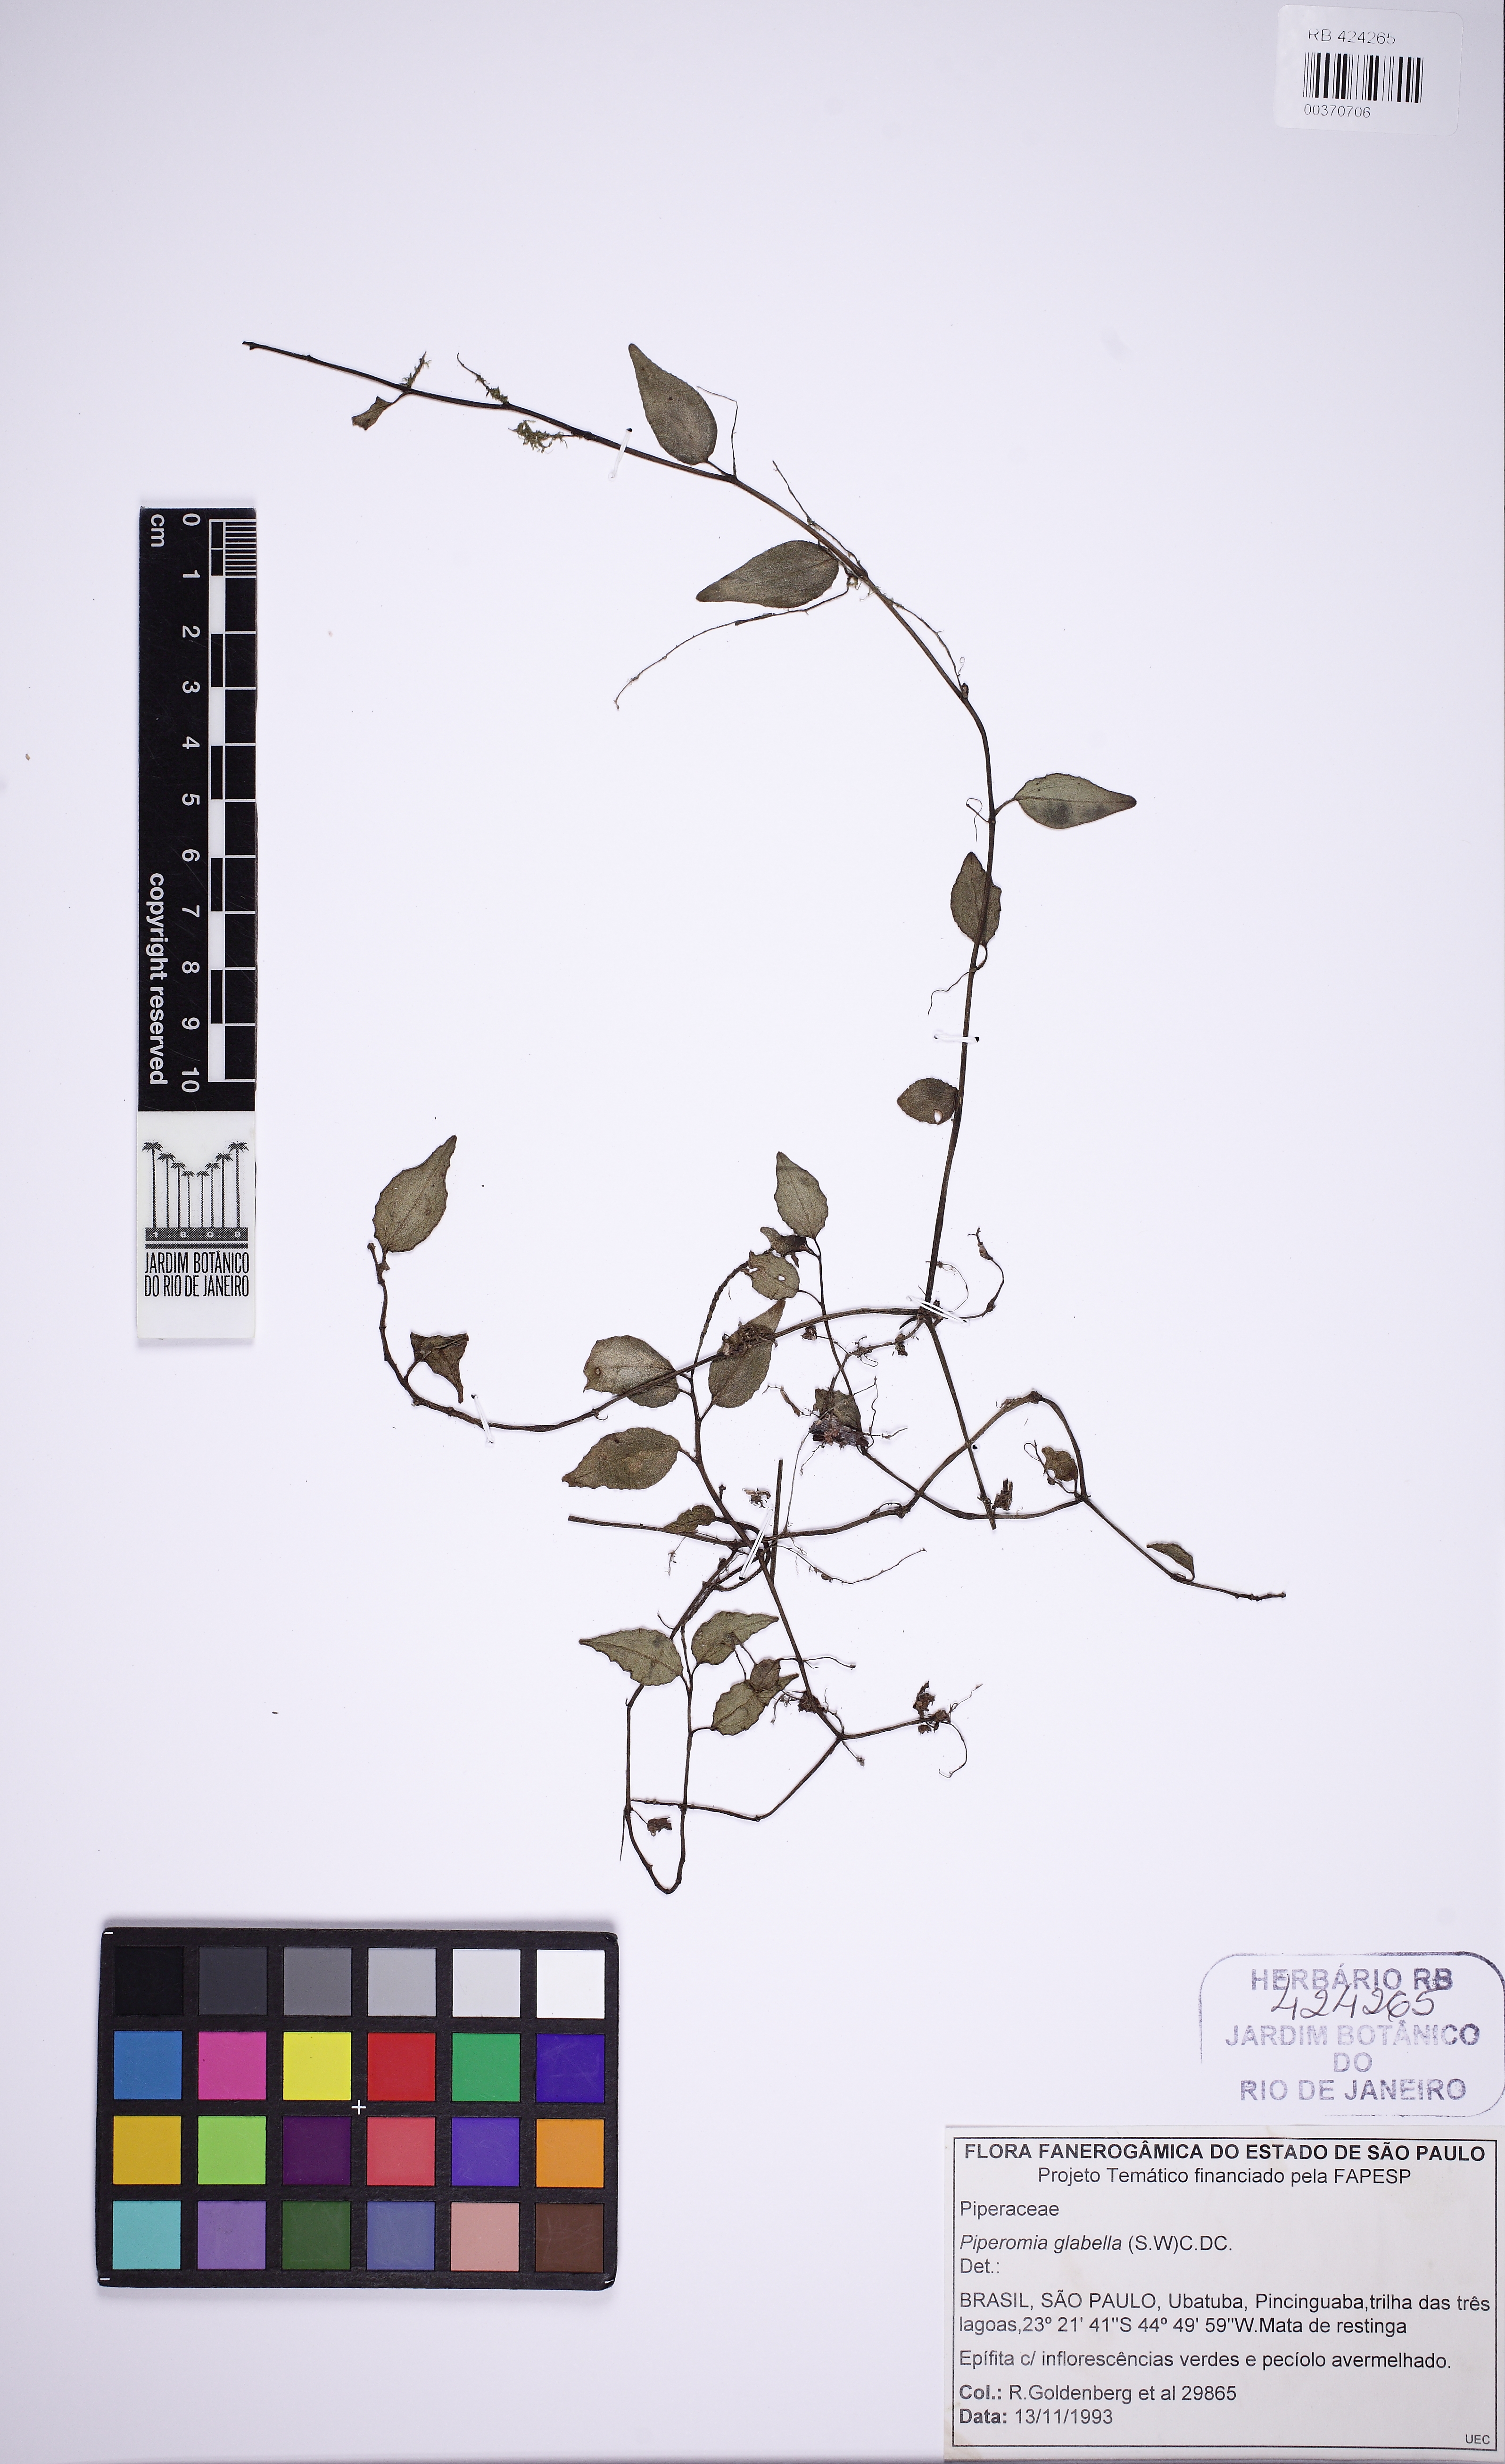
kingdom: Plantae
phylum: Tracheophyta
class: Magnoliopsida
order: Piperales
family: Piperaceae
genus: Peperomia
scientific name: Peperomia glabella
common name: Cypress peperomia
